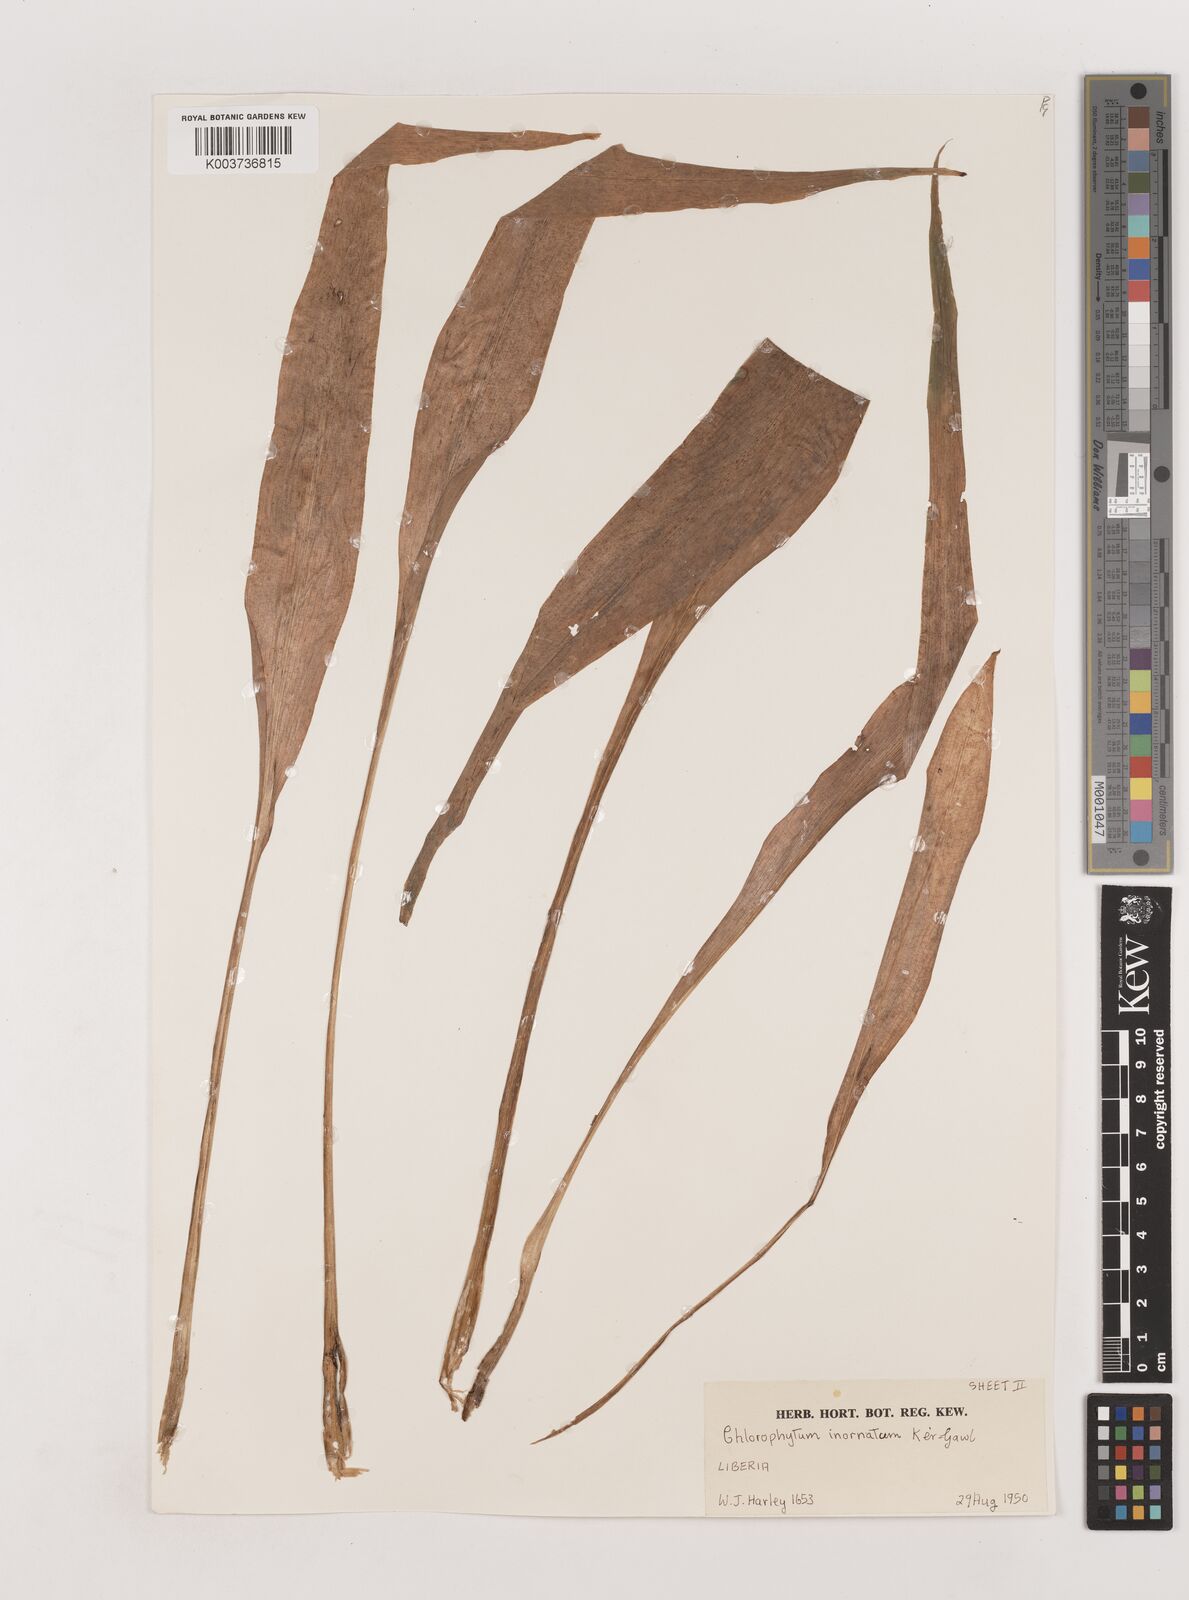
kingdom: Plantae
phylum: Tracheophyta
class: Liliopsida
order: Asparagales
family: Asparagaceae
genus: Chlorophytum
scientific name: Chlorophytum inornatum
